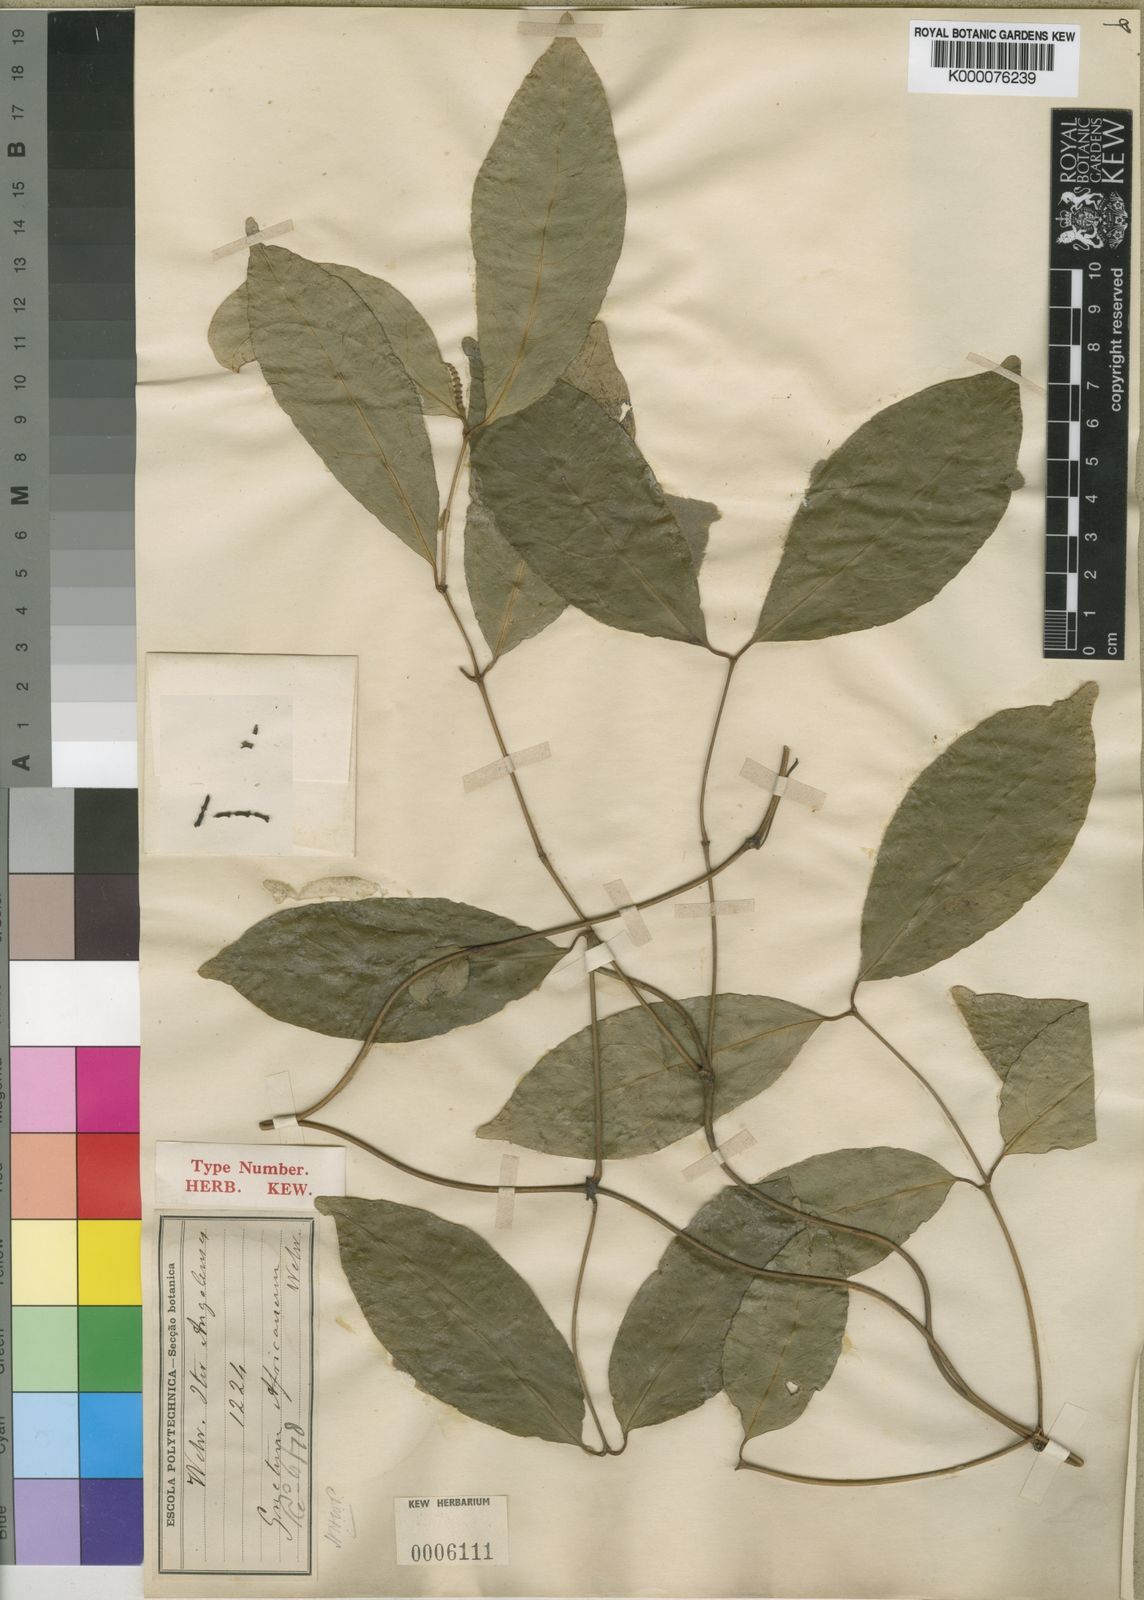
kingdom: Plantae
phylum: Tracheophyta
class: Gnetopsida
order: Gnetales
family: Gnetaceae
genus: Gnetum
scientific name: Gnetum africanum
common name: Eru
